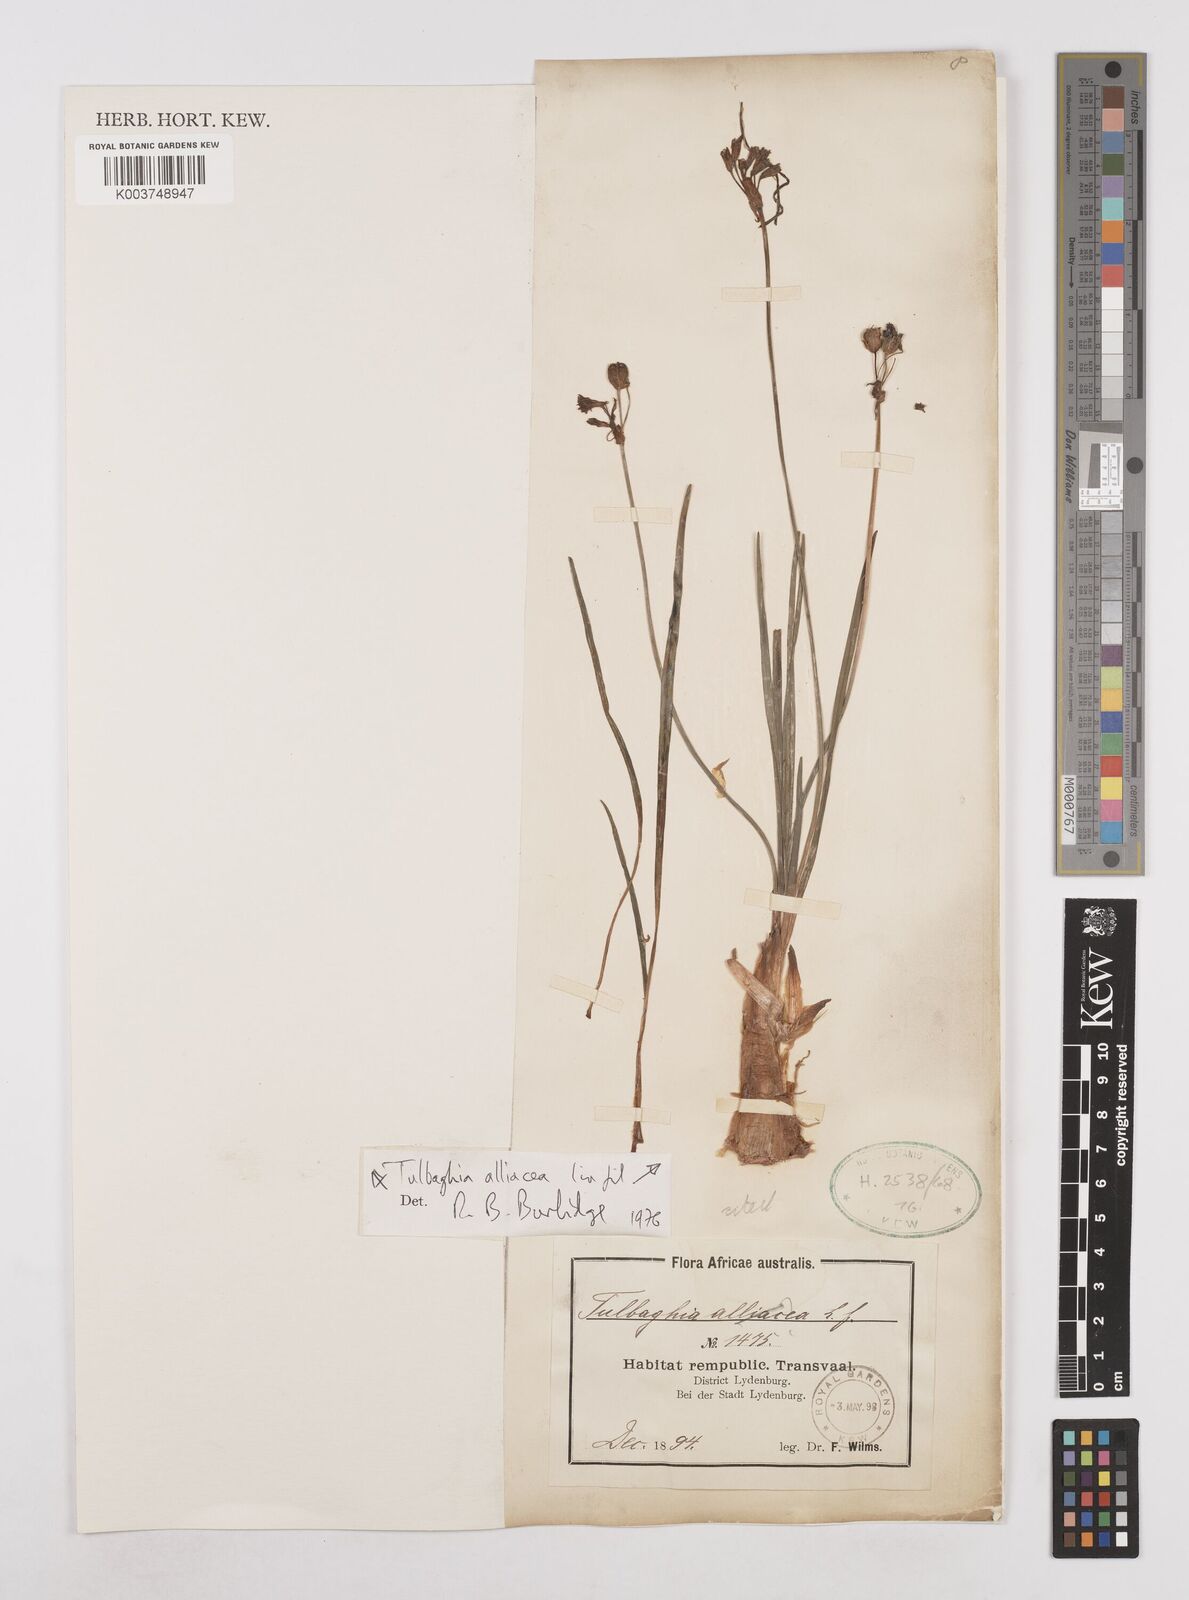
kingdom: Plantae
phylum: Tracheophyta
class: Liliopsida
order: Asparagales
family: Amaryllidaceae
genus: Tulbaghia
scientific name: Tulbaghia alliacea
